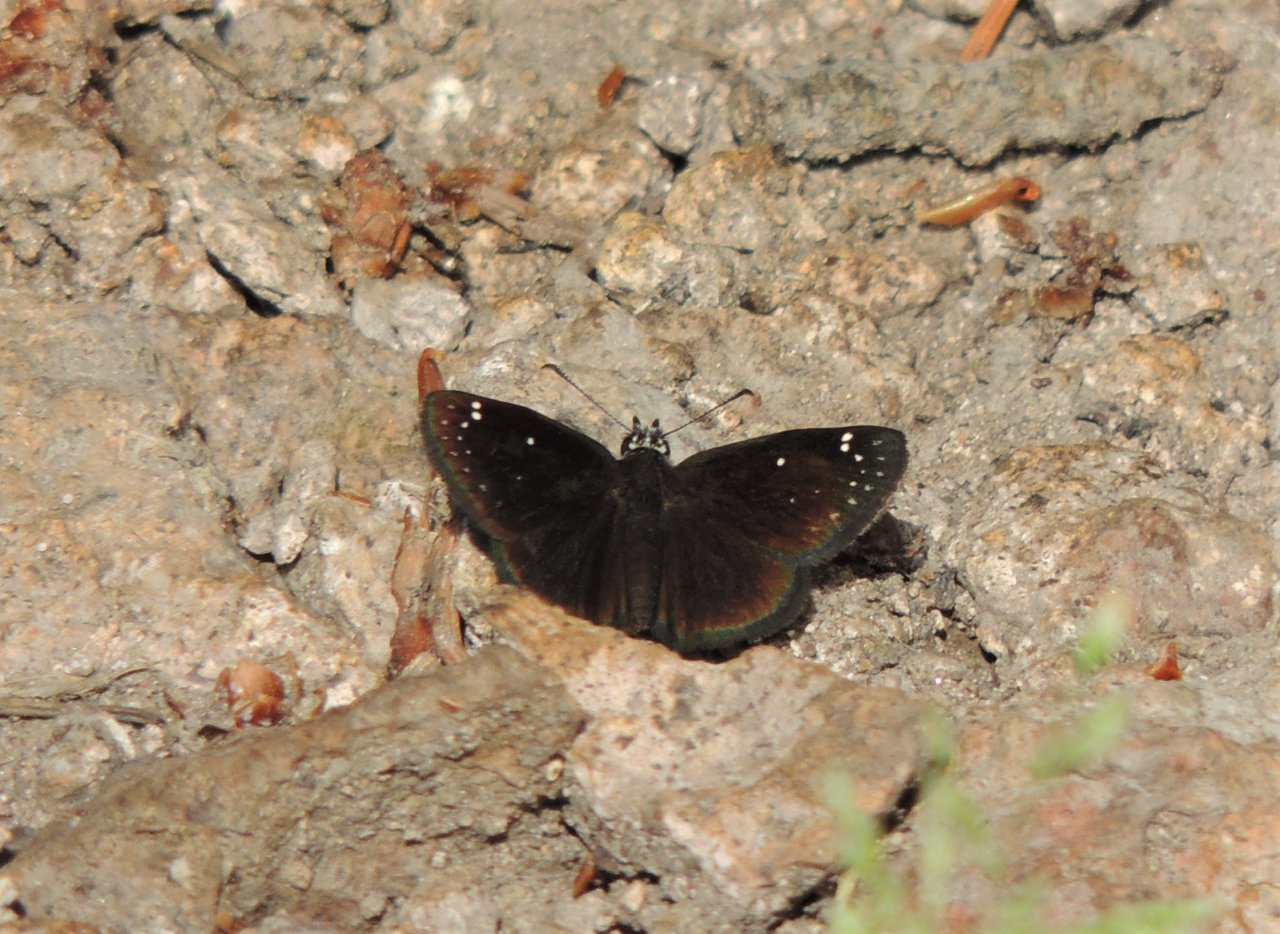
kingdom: Animalia
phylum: Arthropoda
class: Insecta
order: Lepidoptera
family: Hesperiidae
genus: Pholisora
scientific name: Pholisora catullus
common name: Common Sootywing
